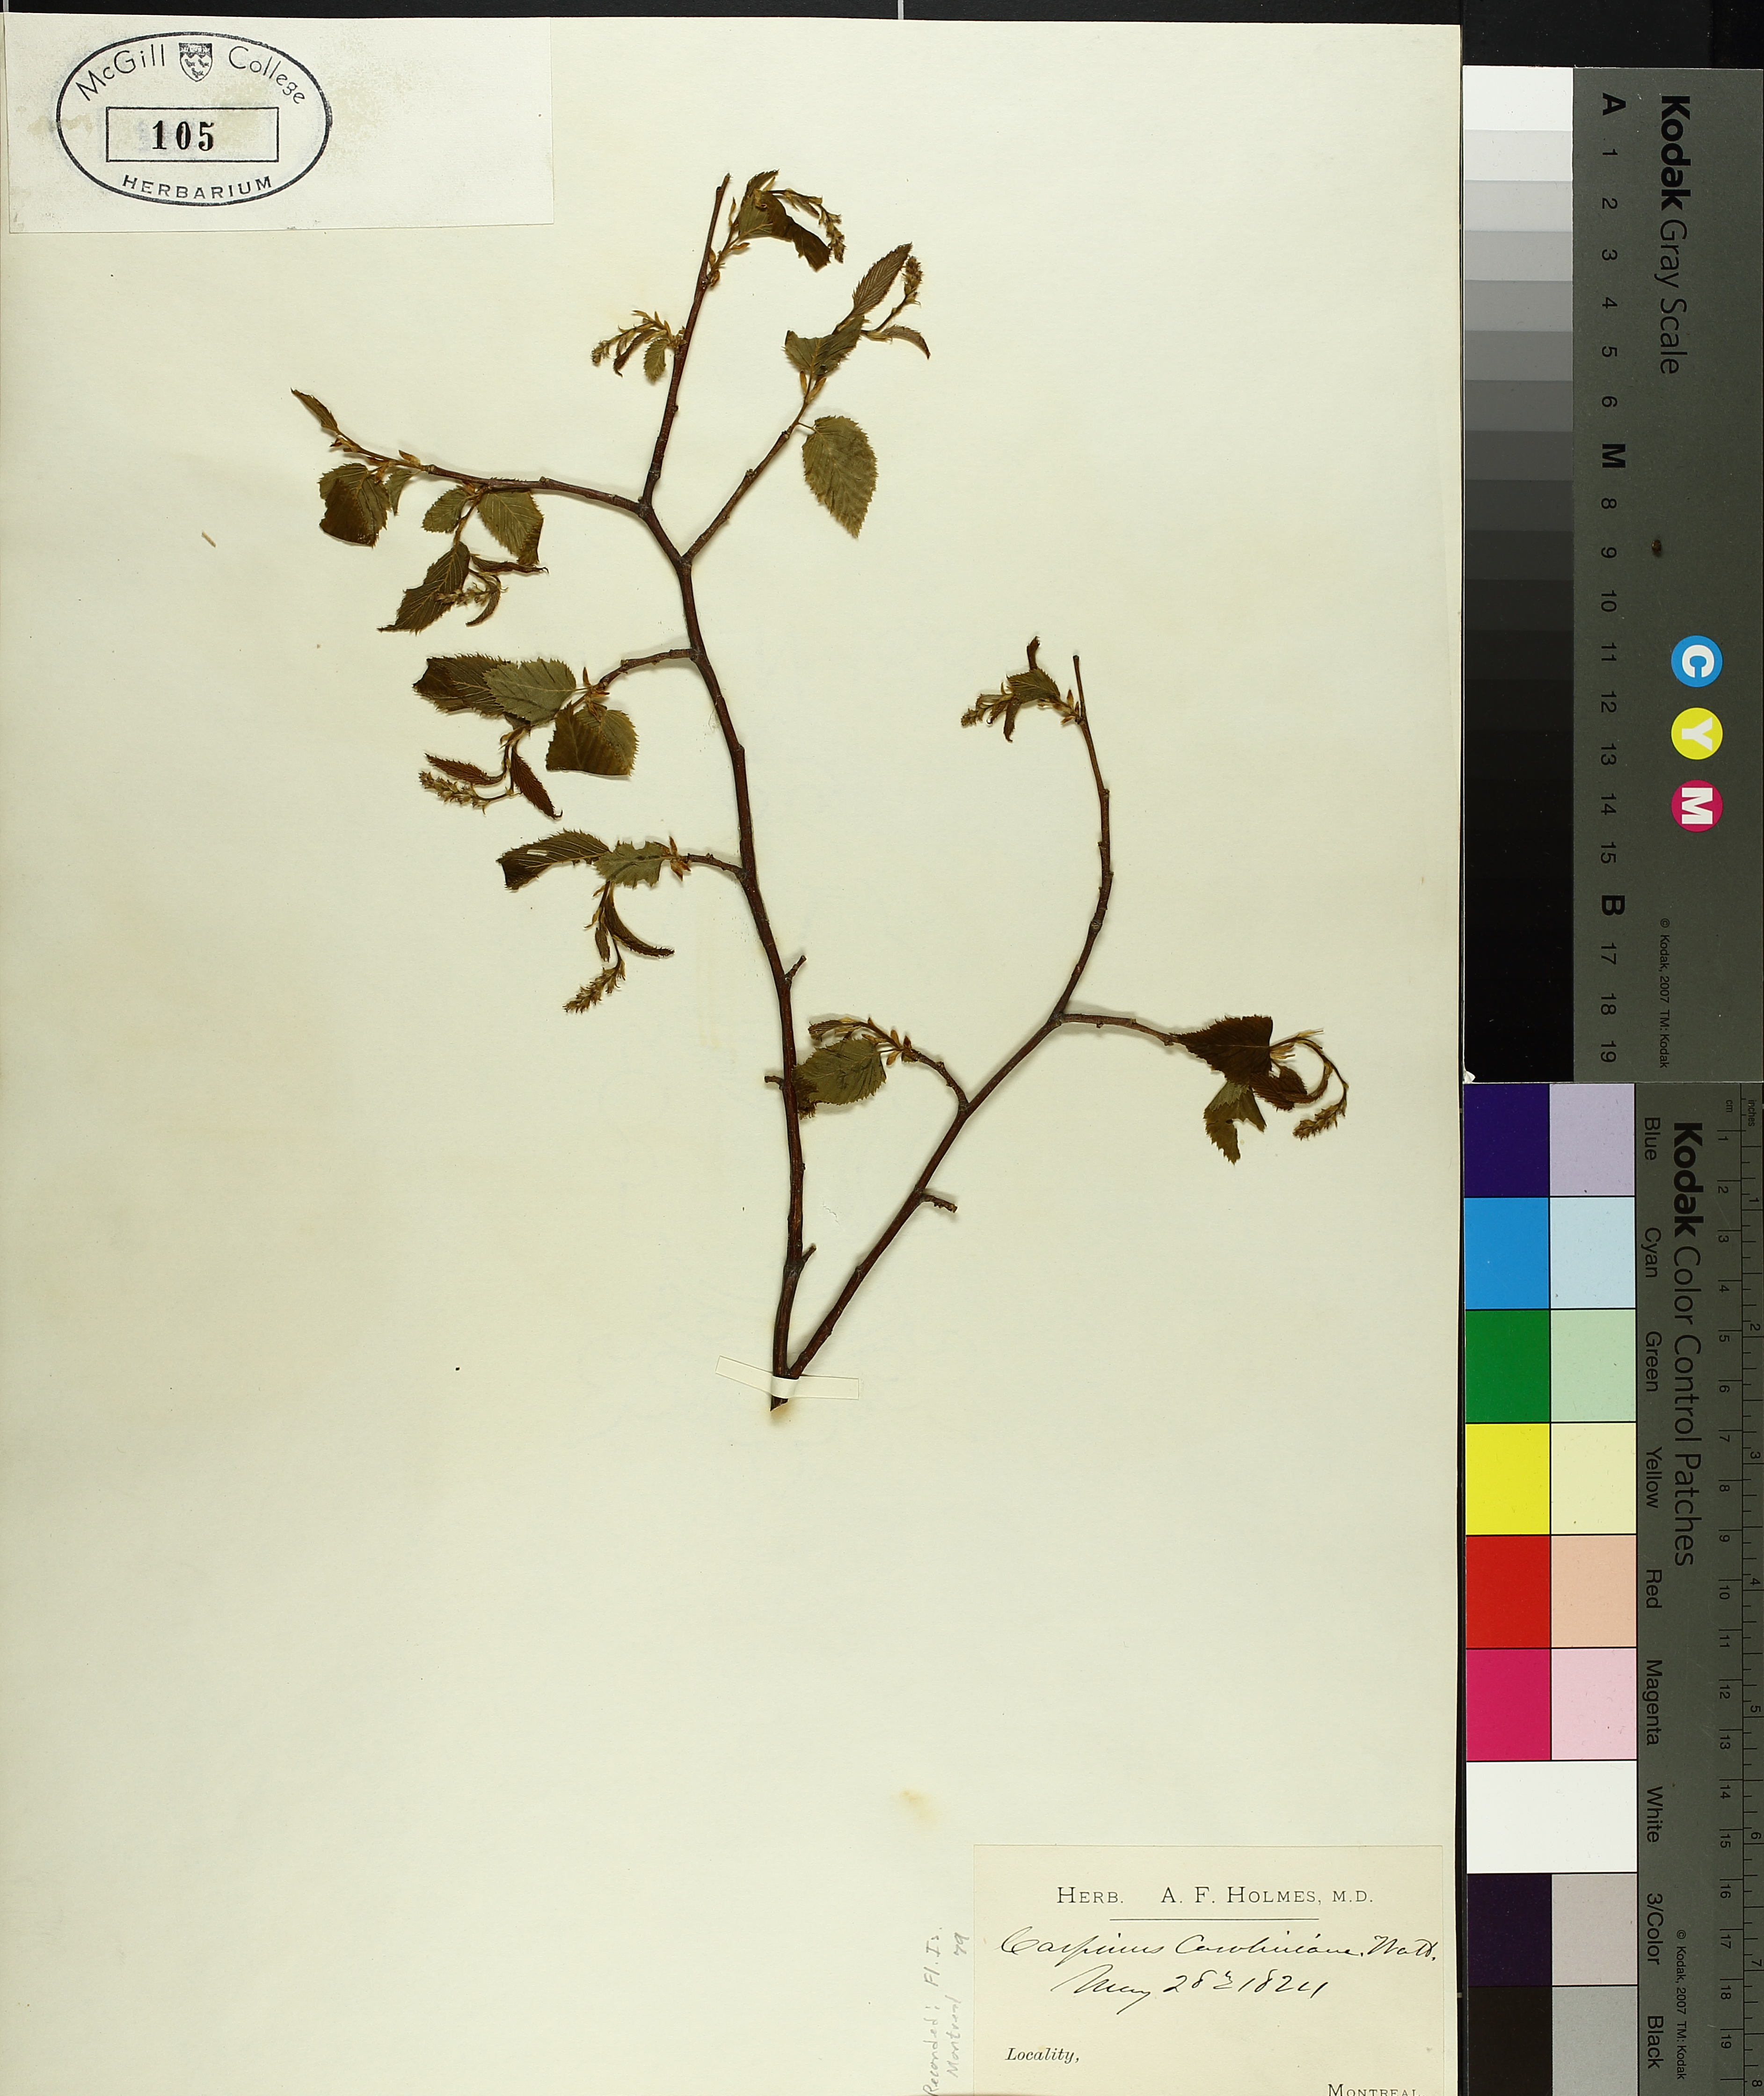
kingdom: Plantae
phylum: Tracheophyta
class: Magnoliopsida
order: Fagales
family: Betulaceae
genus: Carpinus
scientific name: Carpinus caroliniana
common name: American hornbeam
